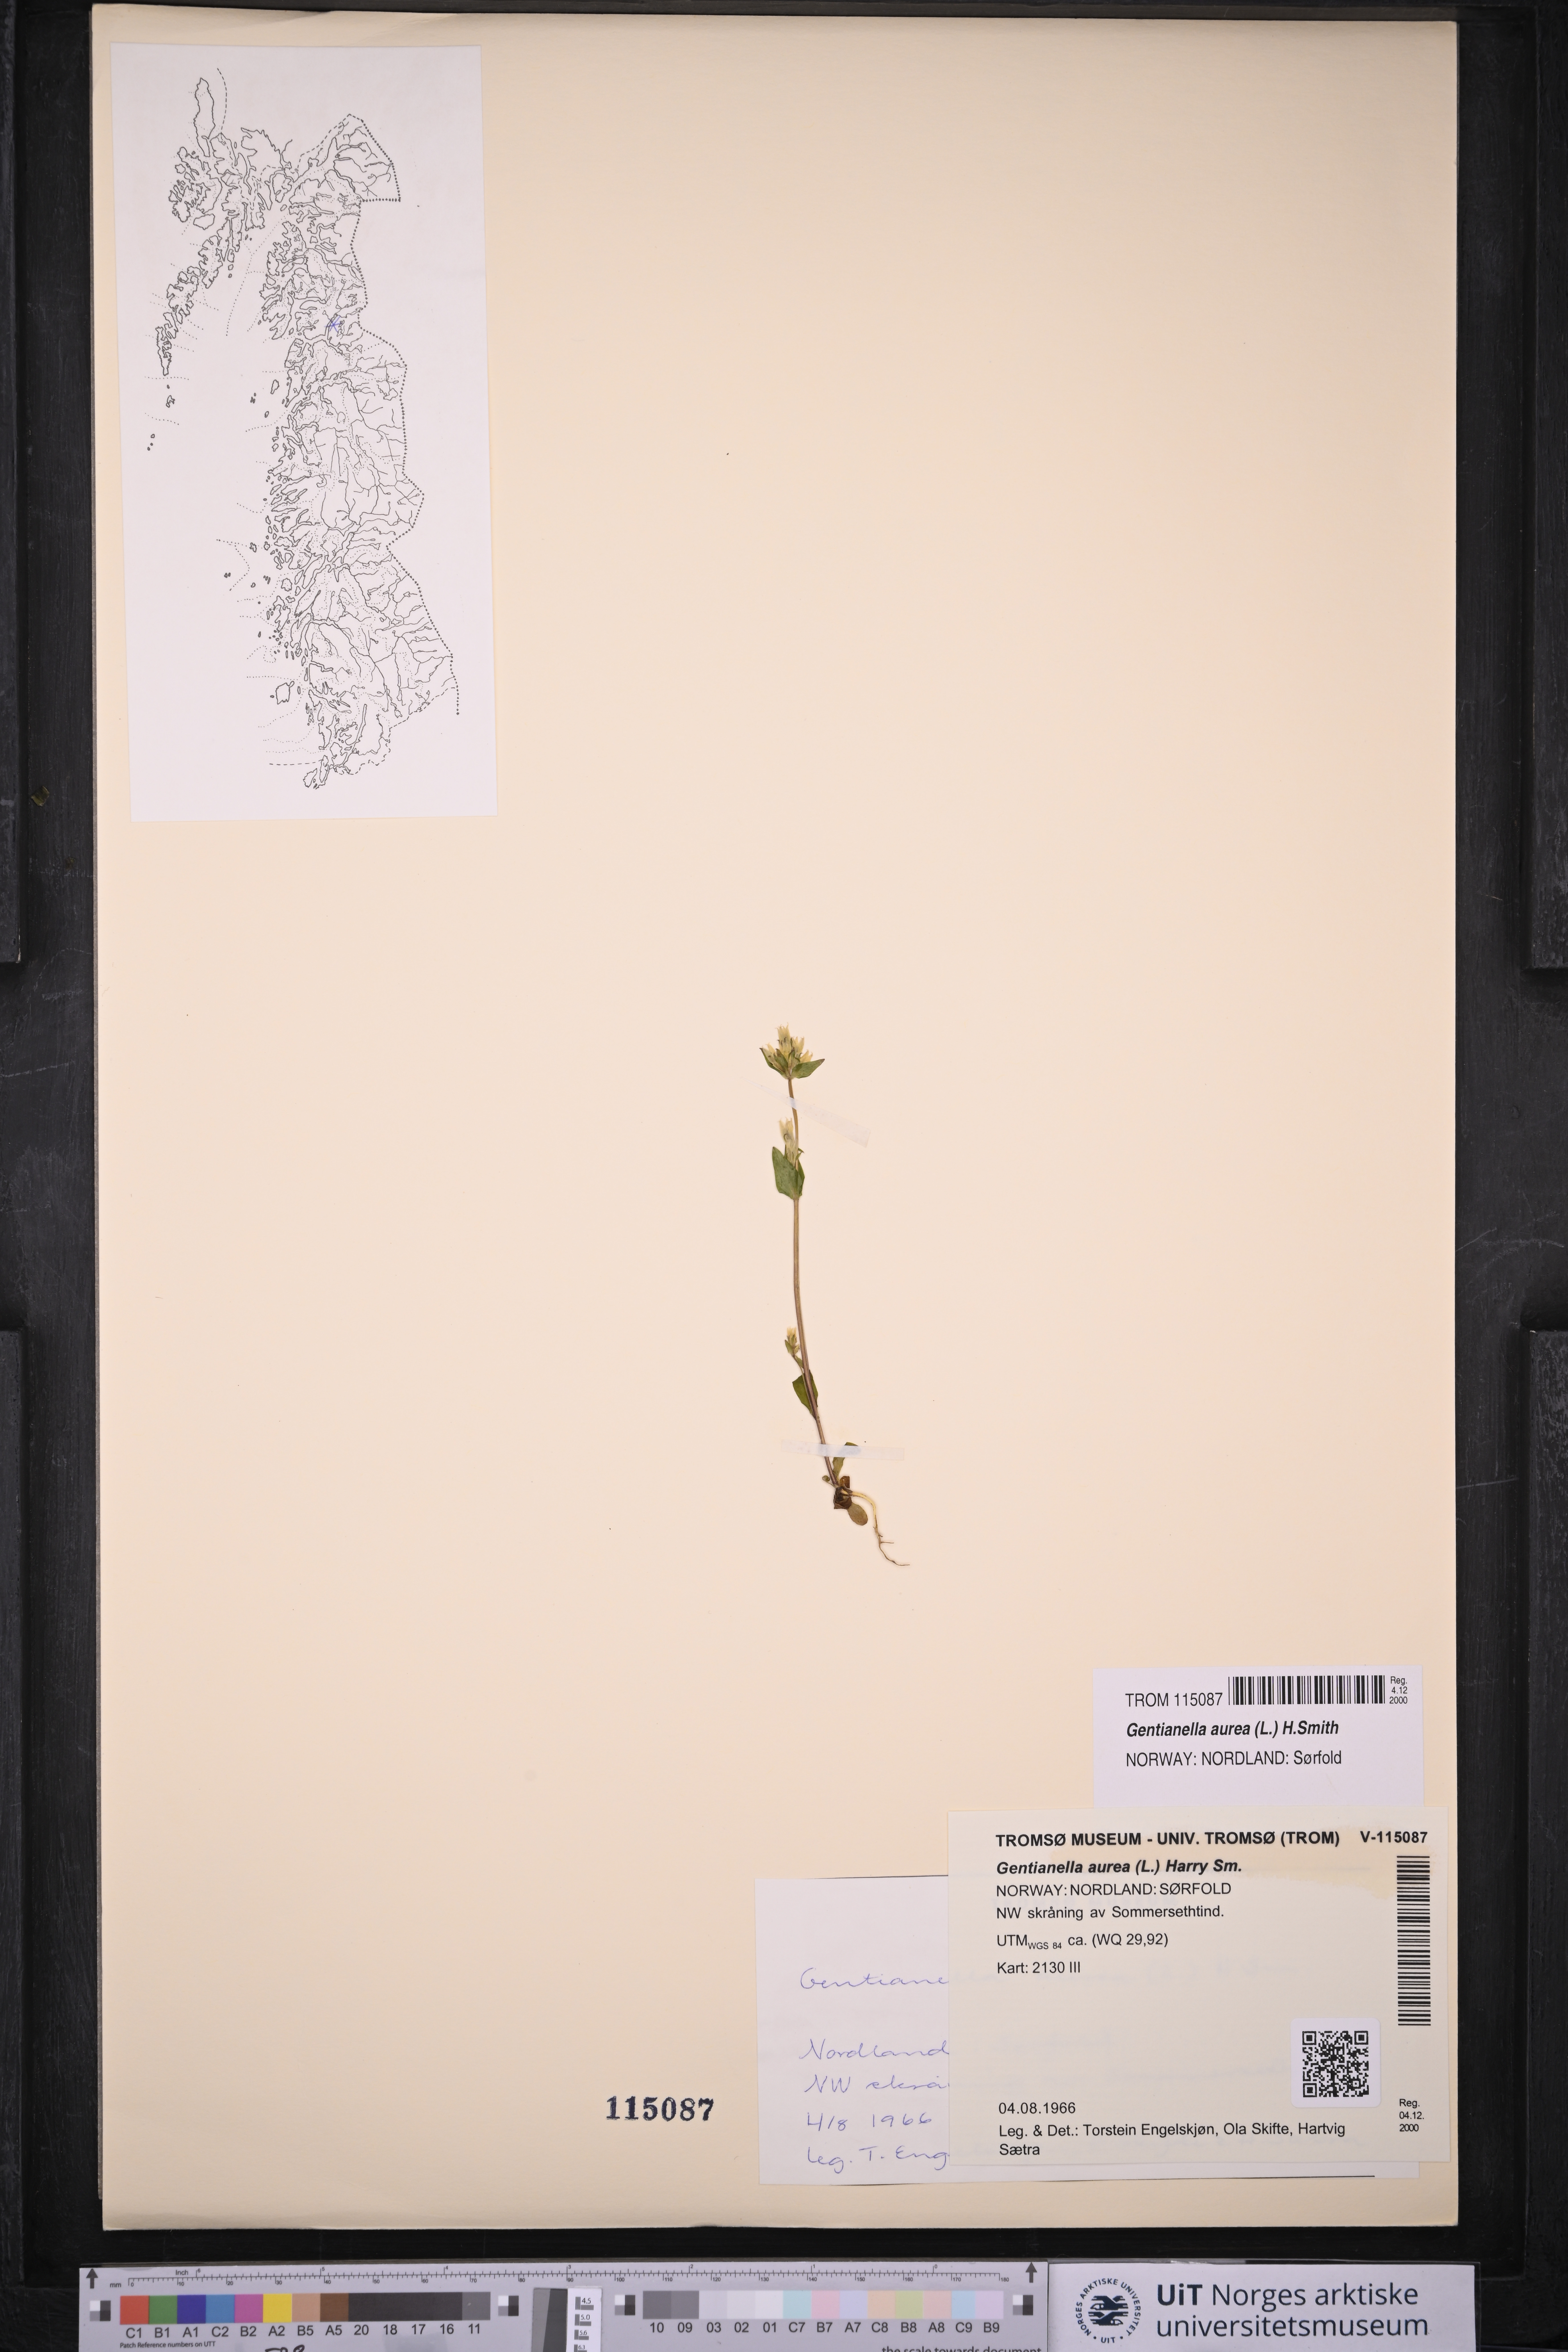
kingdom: Plantae
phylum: Tracheophyta
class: Magnoliopsida
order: Gentianales
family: Gentianaceae
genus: Gentianella
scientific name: Gentianella aurea
